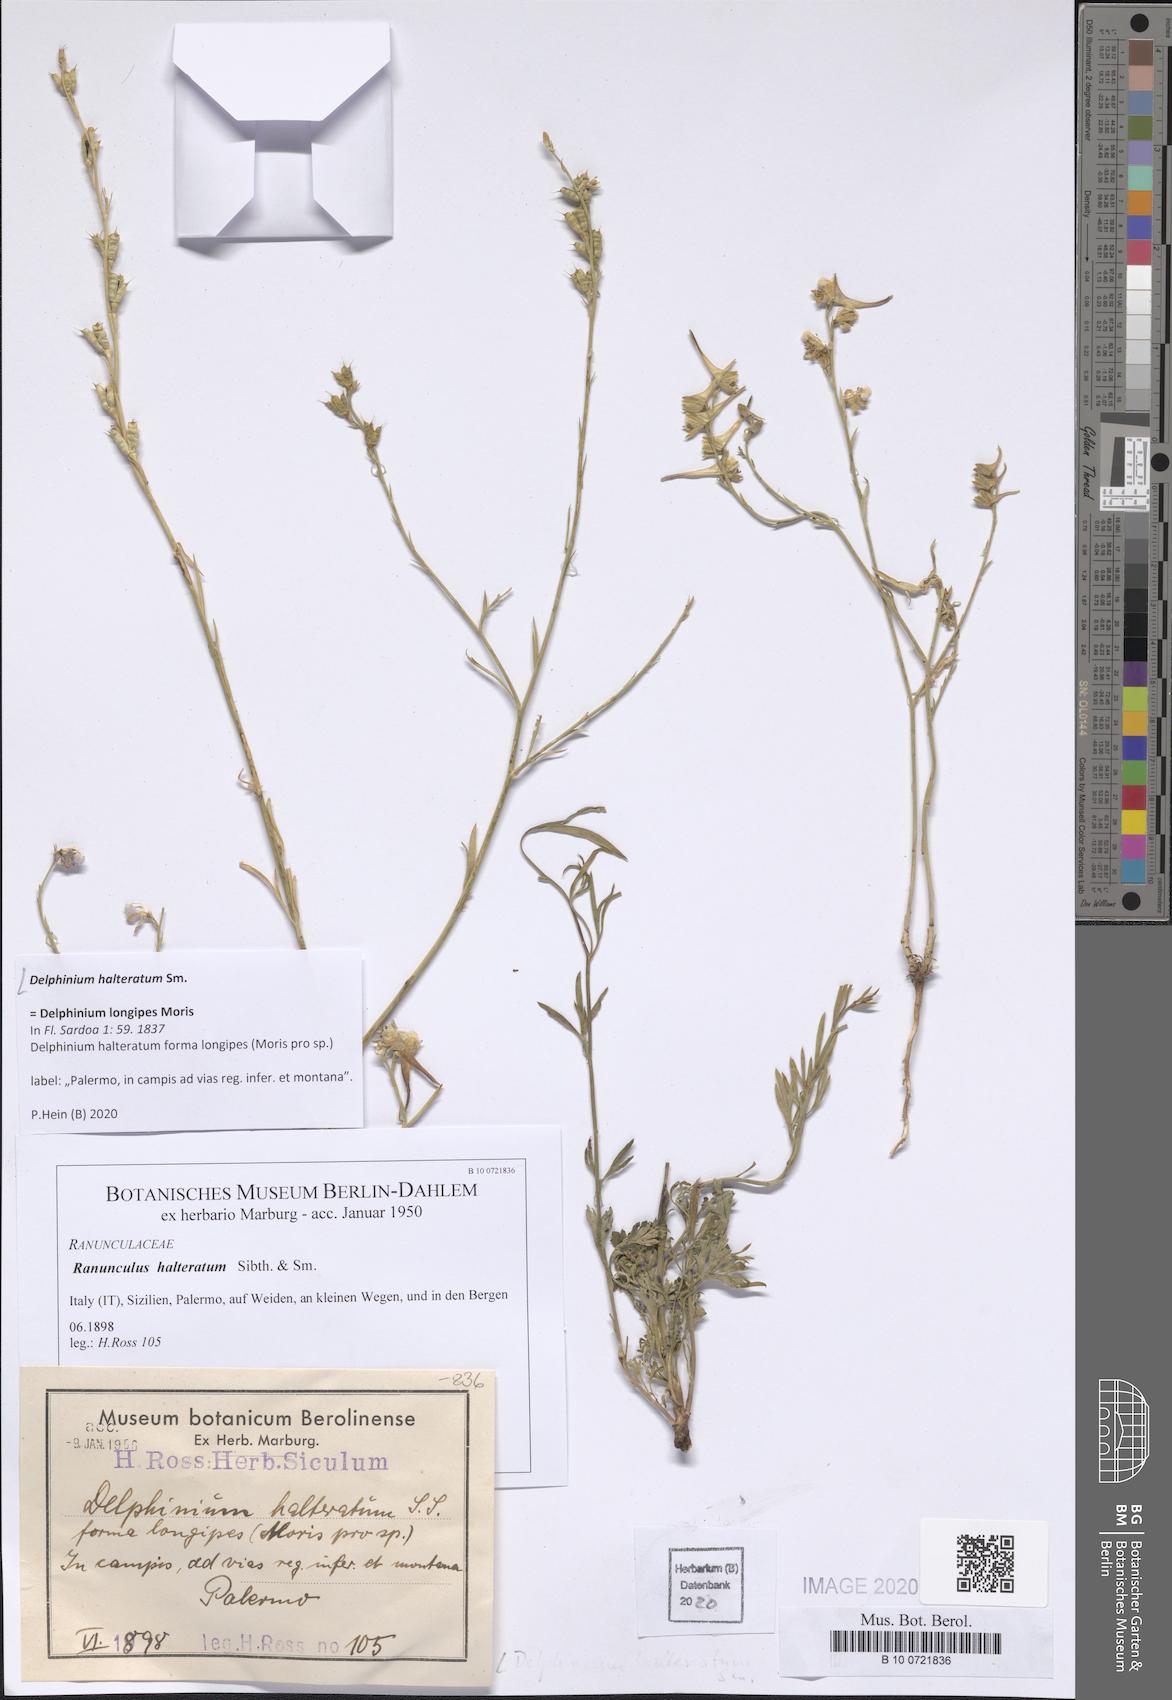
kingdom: Plantae
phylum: Tracheophyta
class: Magnoliopsida
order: Ranunculales
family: Ranunculaceae
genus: Delphinium
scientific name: Delphinium halteratum
